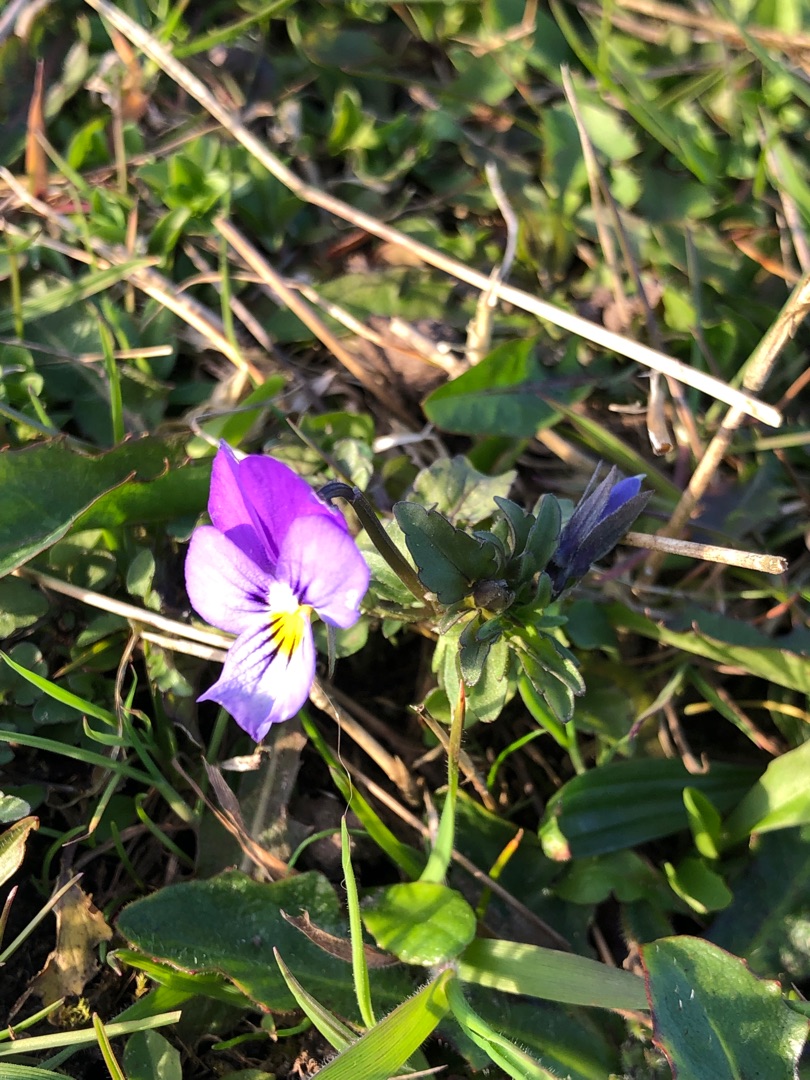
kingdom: Plantae
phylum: Tracheophyta
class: Magnoliopsida
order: Malpighiales
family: Violaceae
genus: Viola
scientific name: Viola tricolor
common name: Stedmoderblomst
